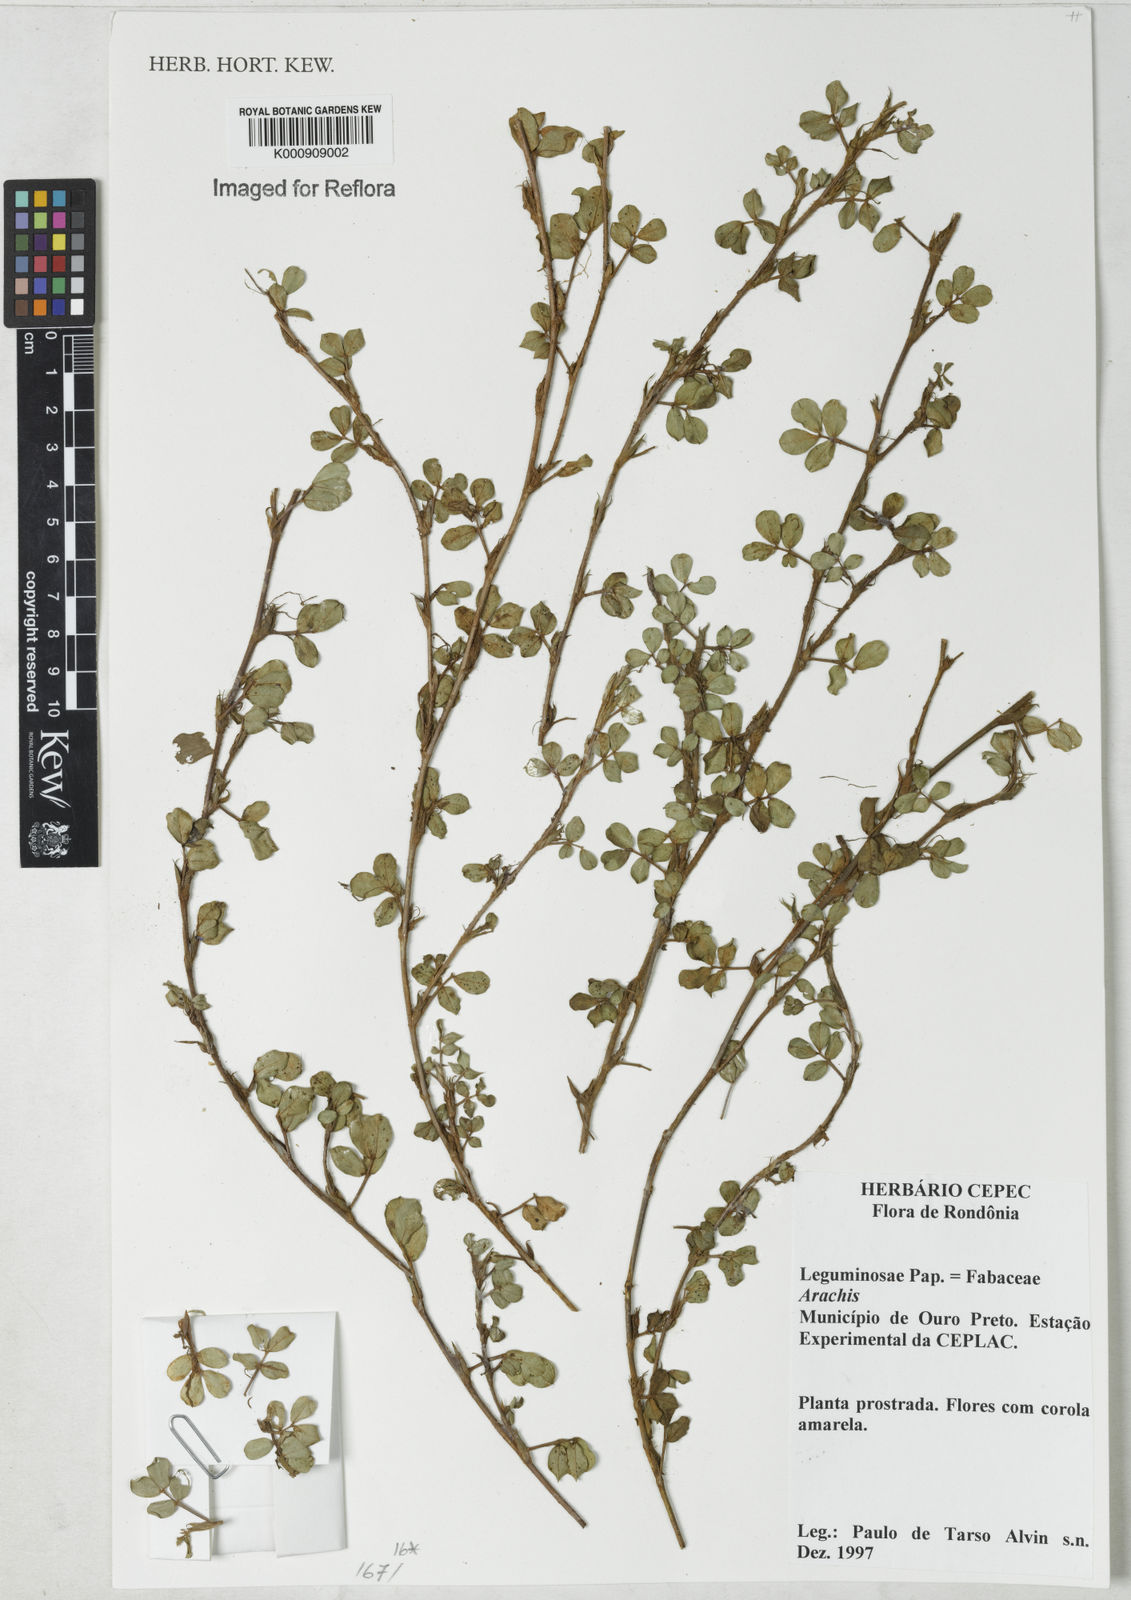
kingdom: Plantae
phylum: Tracheophyta
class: Magnoliopsida
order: Fabales
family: Fabaceae
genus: Arachis
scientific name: Arachis
